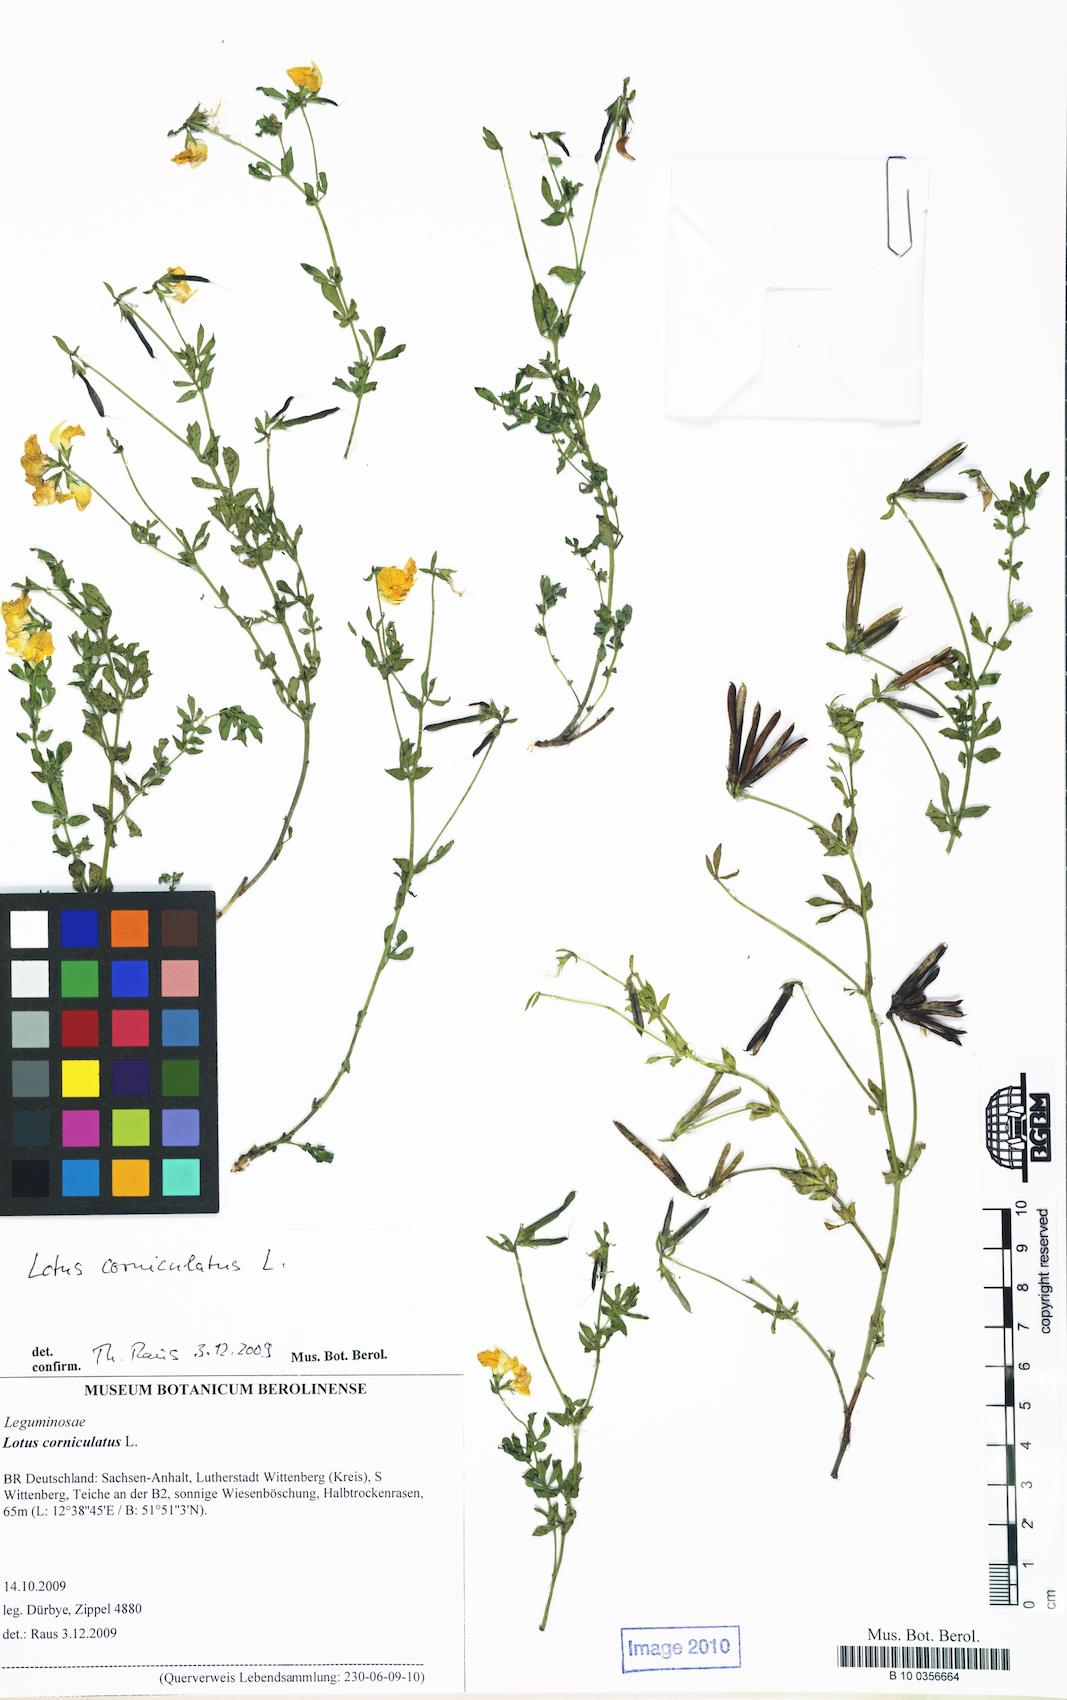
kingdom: Plantae
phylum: Tracheophyta
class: Magnoliopsida
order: Fabales
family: Fabaceae
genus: Lotus
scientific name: Lotus corniculatus
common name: Common bird's-foot-trefoil
